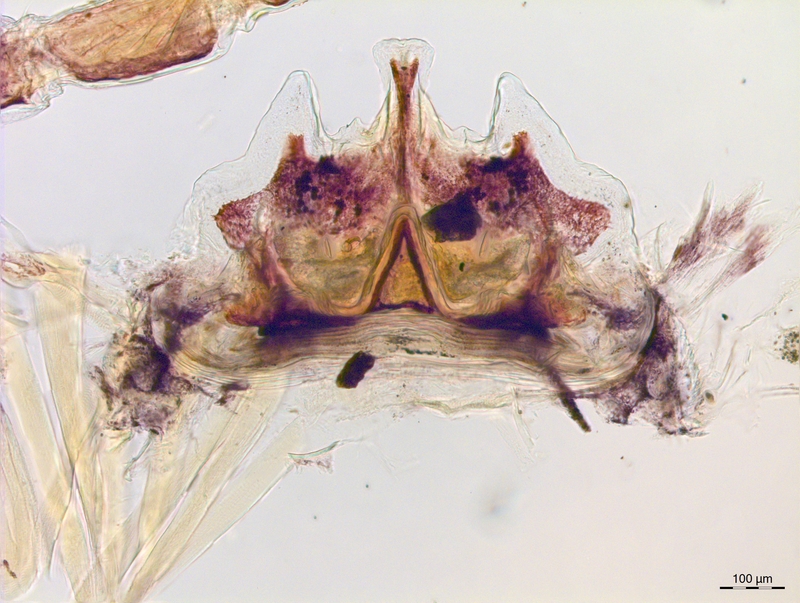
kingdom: Animalia
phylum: Arthropoda
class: Diplopoda
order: Chordeumatida
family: Craspedosomatidae
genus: Craspedosoma
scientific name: Craspedosoma rawlinsii
